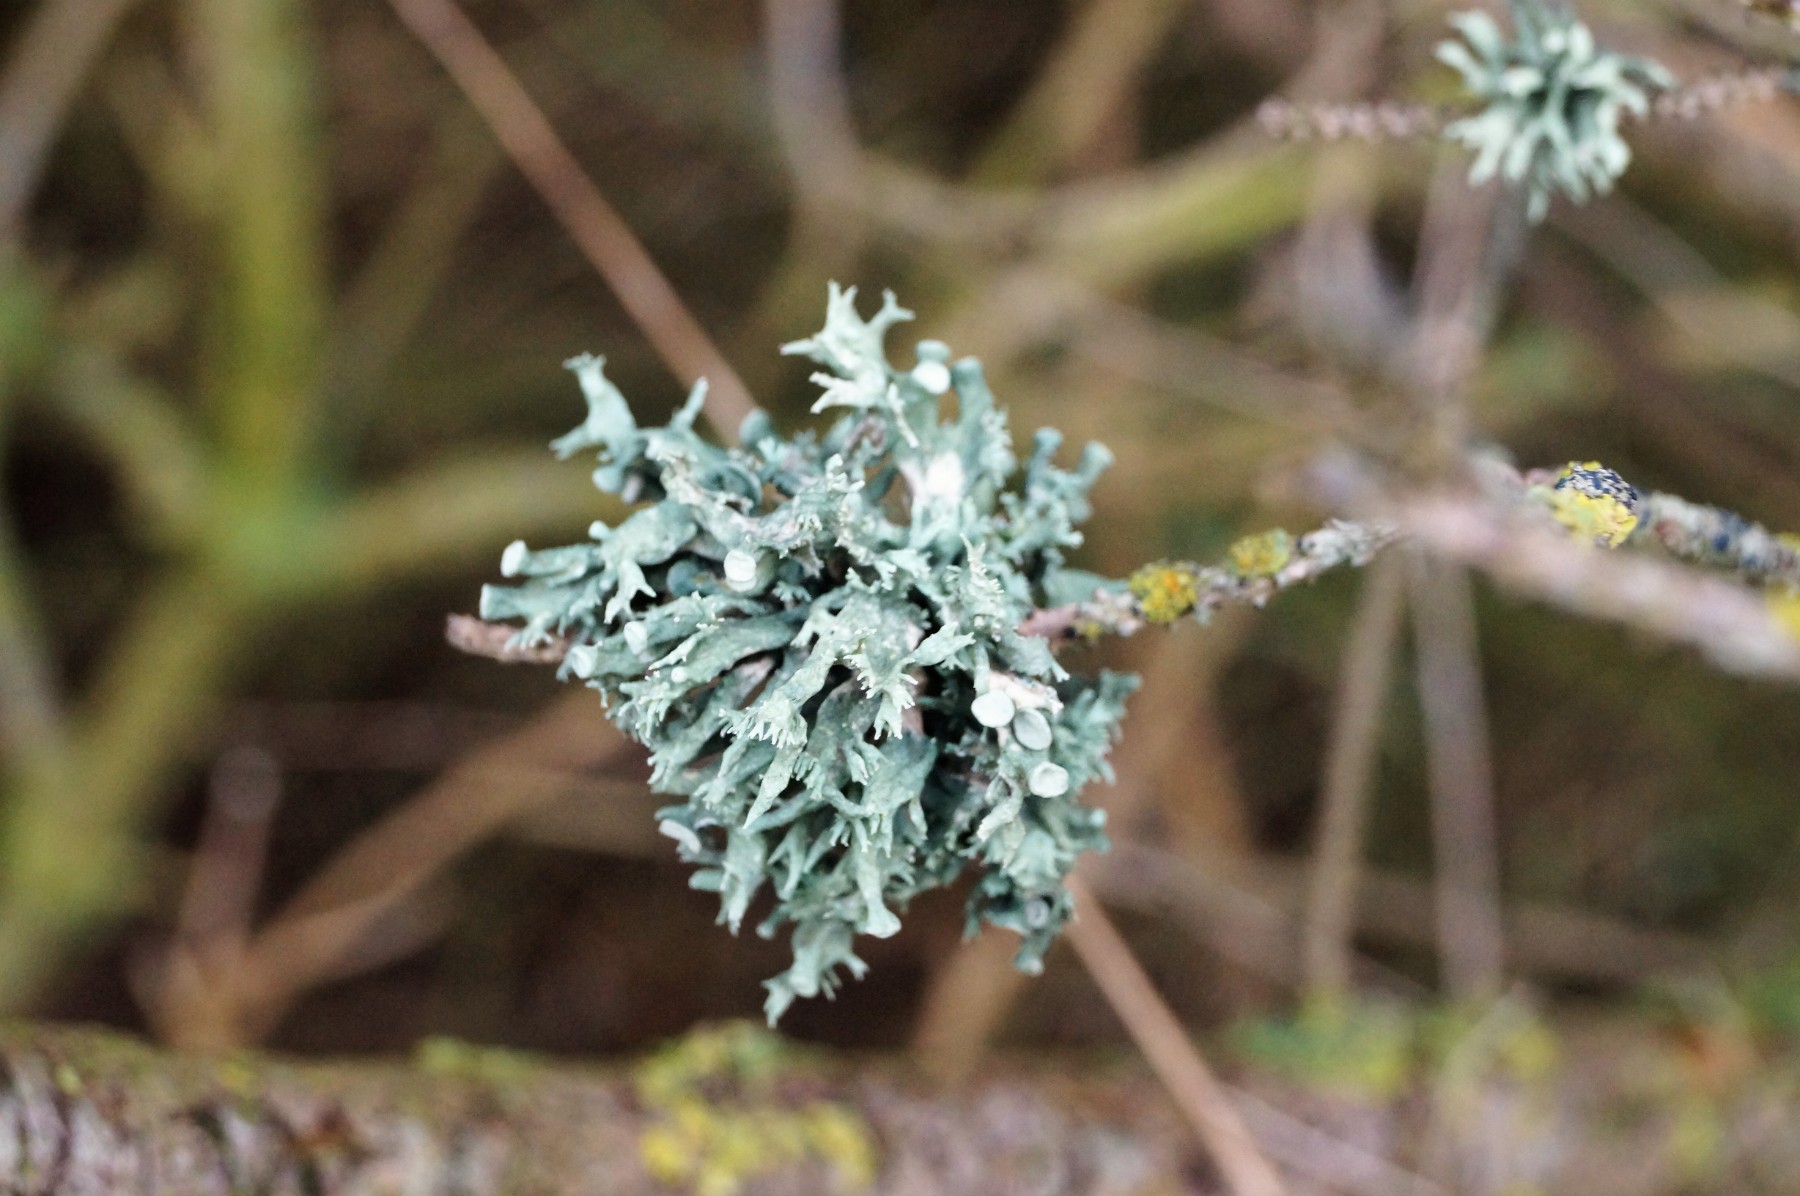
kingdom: Fungi
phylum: Ascomycota
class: Lecanoromycetes
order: Lecanorales
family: Ramalinaceae
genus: Ramalina
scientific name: Ramalina fastigiata
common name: tue-grenlav
